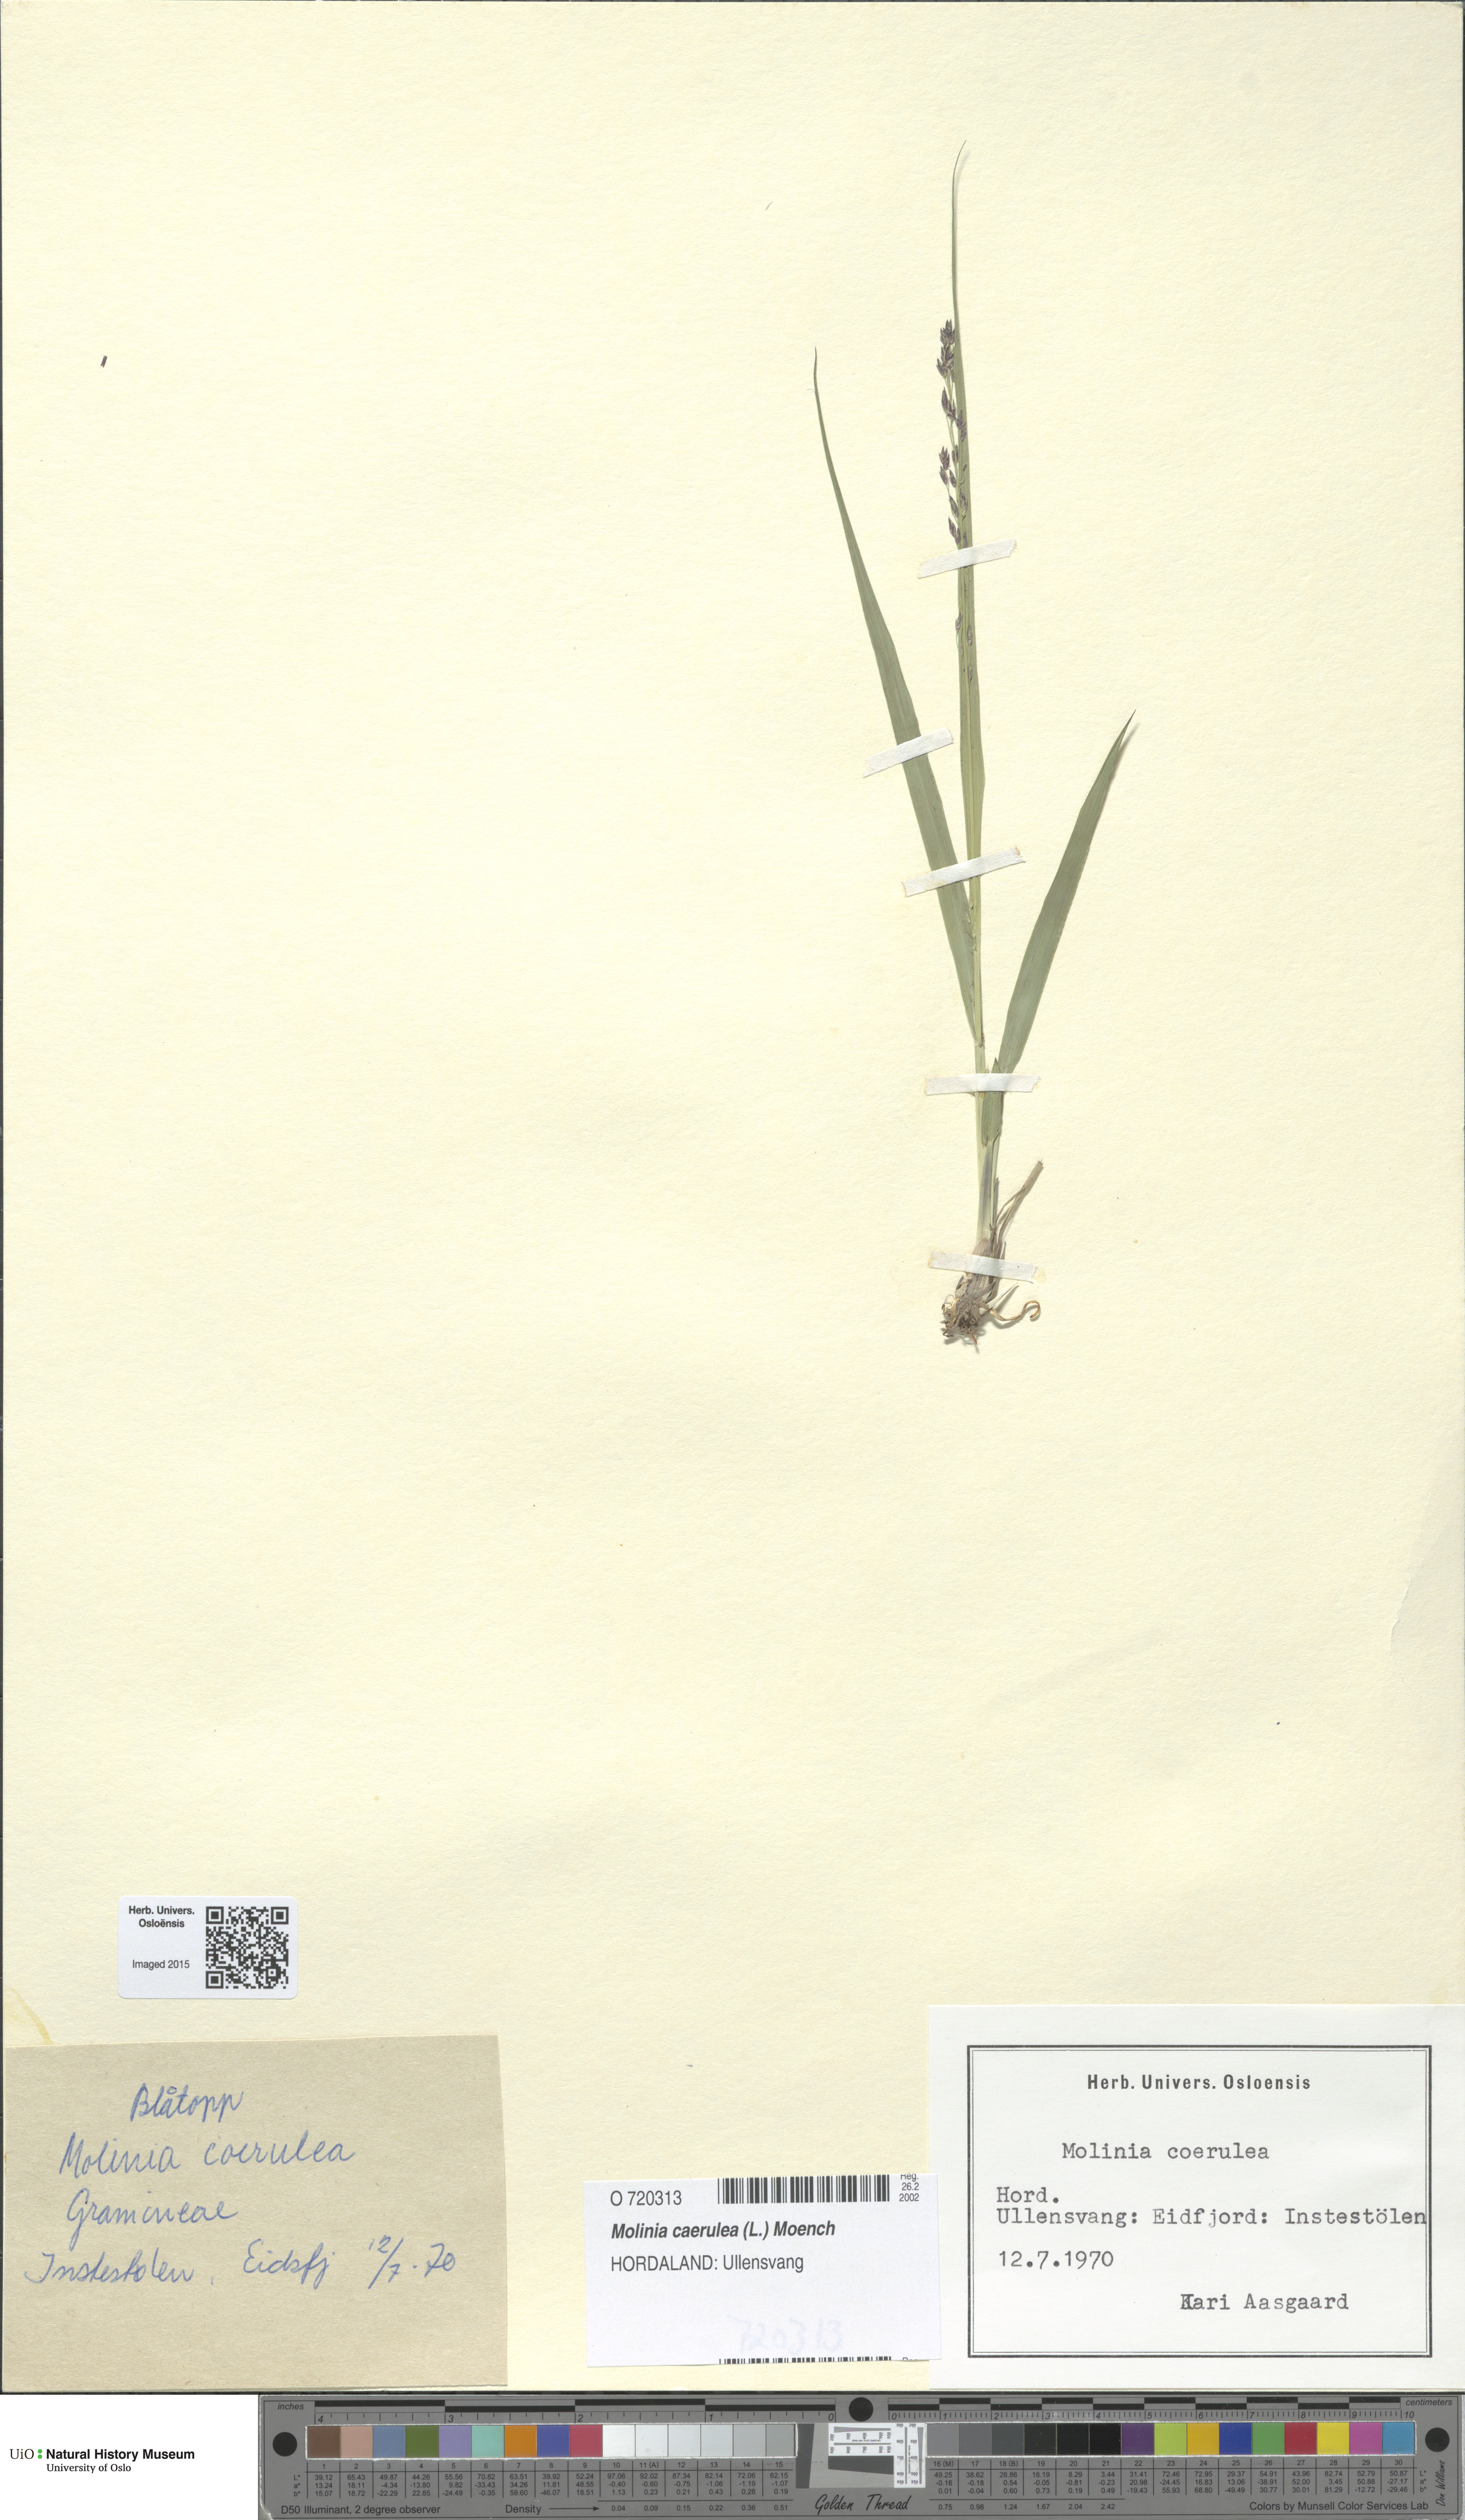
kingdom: Plantae
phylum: Tracheophyta
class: Liliopsida
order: Poales
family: Poaceae
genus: Molinia
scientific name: Molinia caerulea
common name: Purple moor-grass
